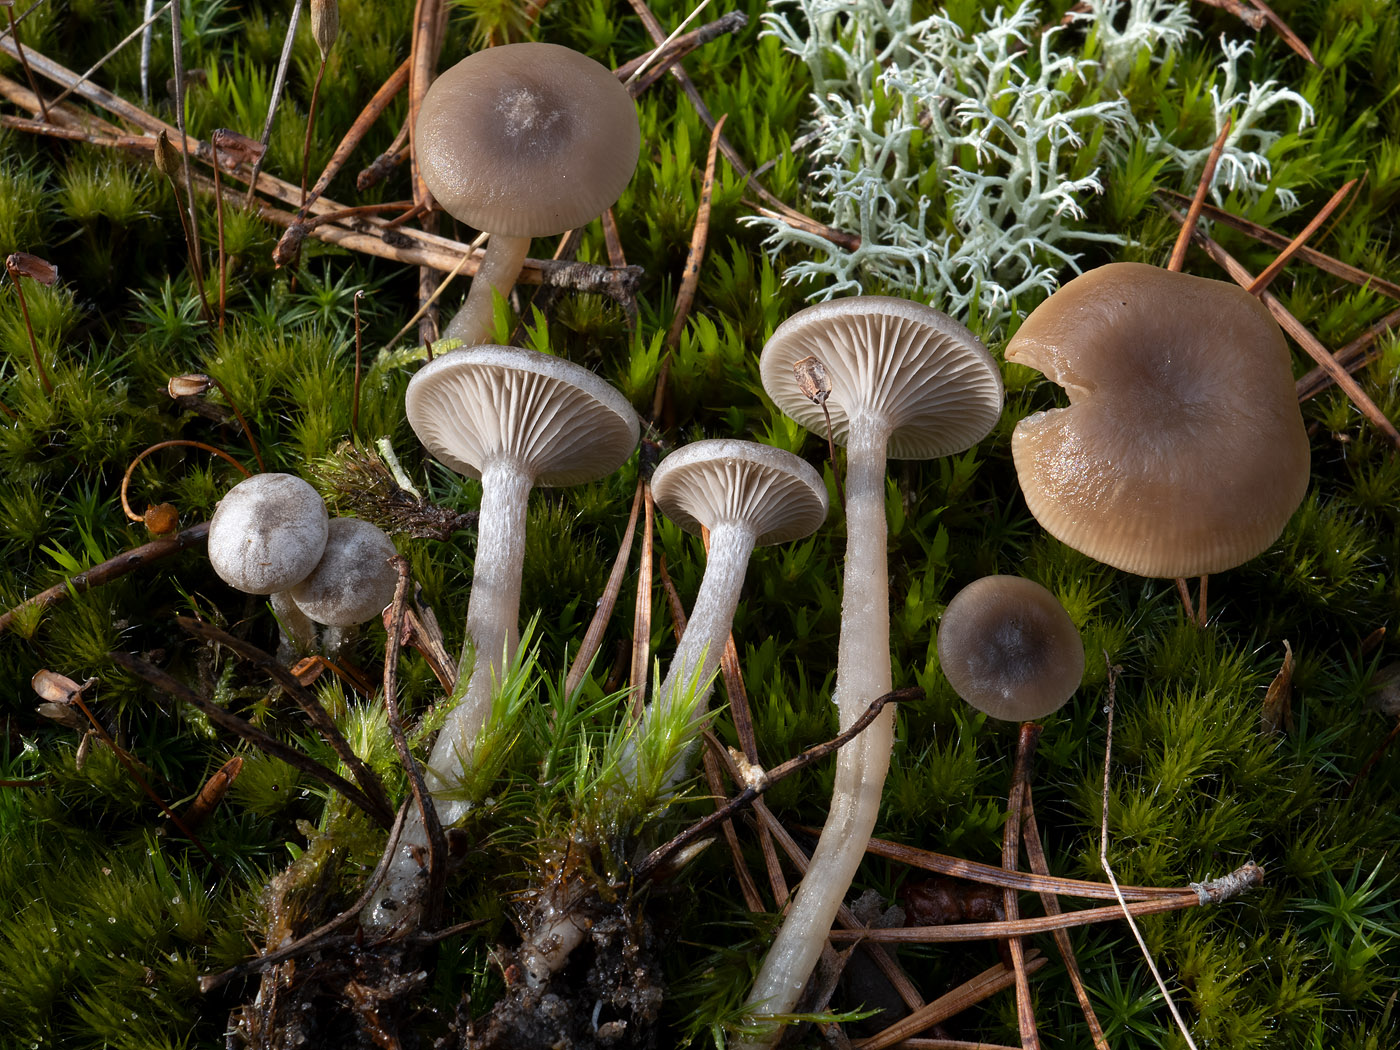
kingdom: Fungi
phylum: Basidiomycota
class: Agaricomycetes
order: Agaricales
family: Tricholomataceae
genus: Clitocybe
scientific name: Clitocybe vibecina
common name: randstribet tragthat
